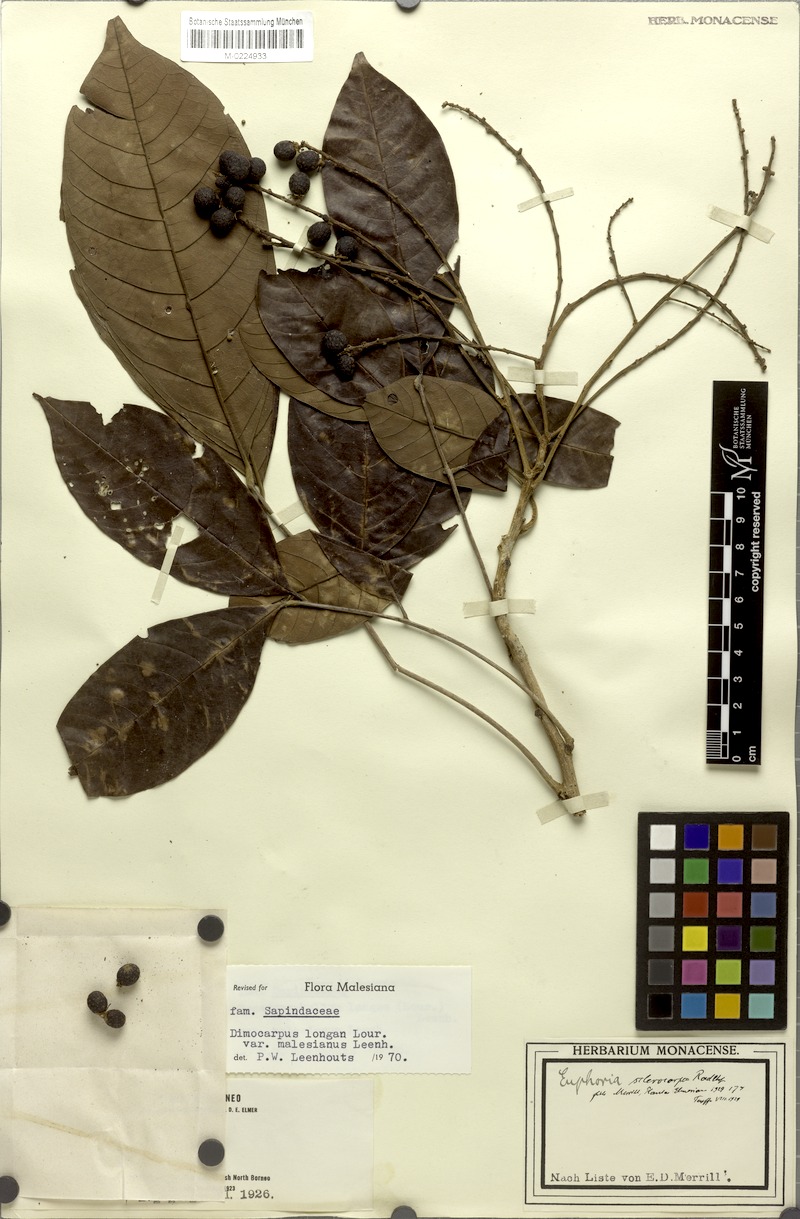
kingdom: Plantae
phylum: Tracheophyta
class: Magnoliopsida
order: Sapindales
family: Sapindaceae
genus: Litchi
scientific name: Litchi Euphoria sclerocarpa
